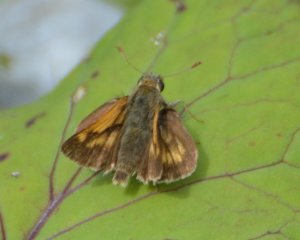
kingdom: Animalia
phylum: Arthropoda
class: Insecta
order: Lepidoptera
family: Hesperiidae
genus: Polites
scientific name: Polites coras
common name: Peck's Skipper
